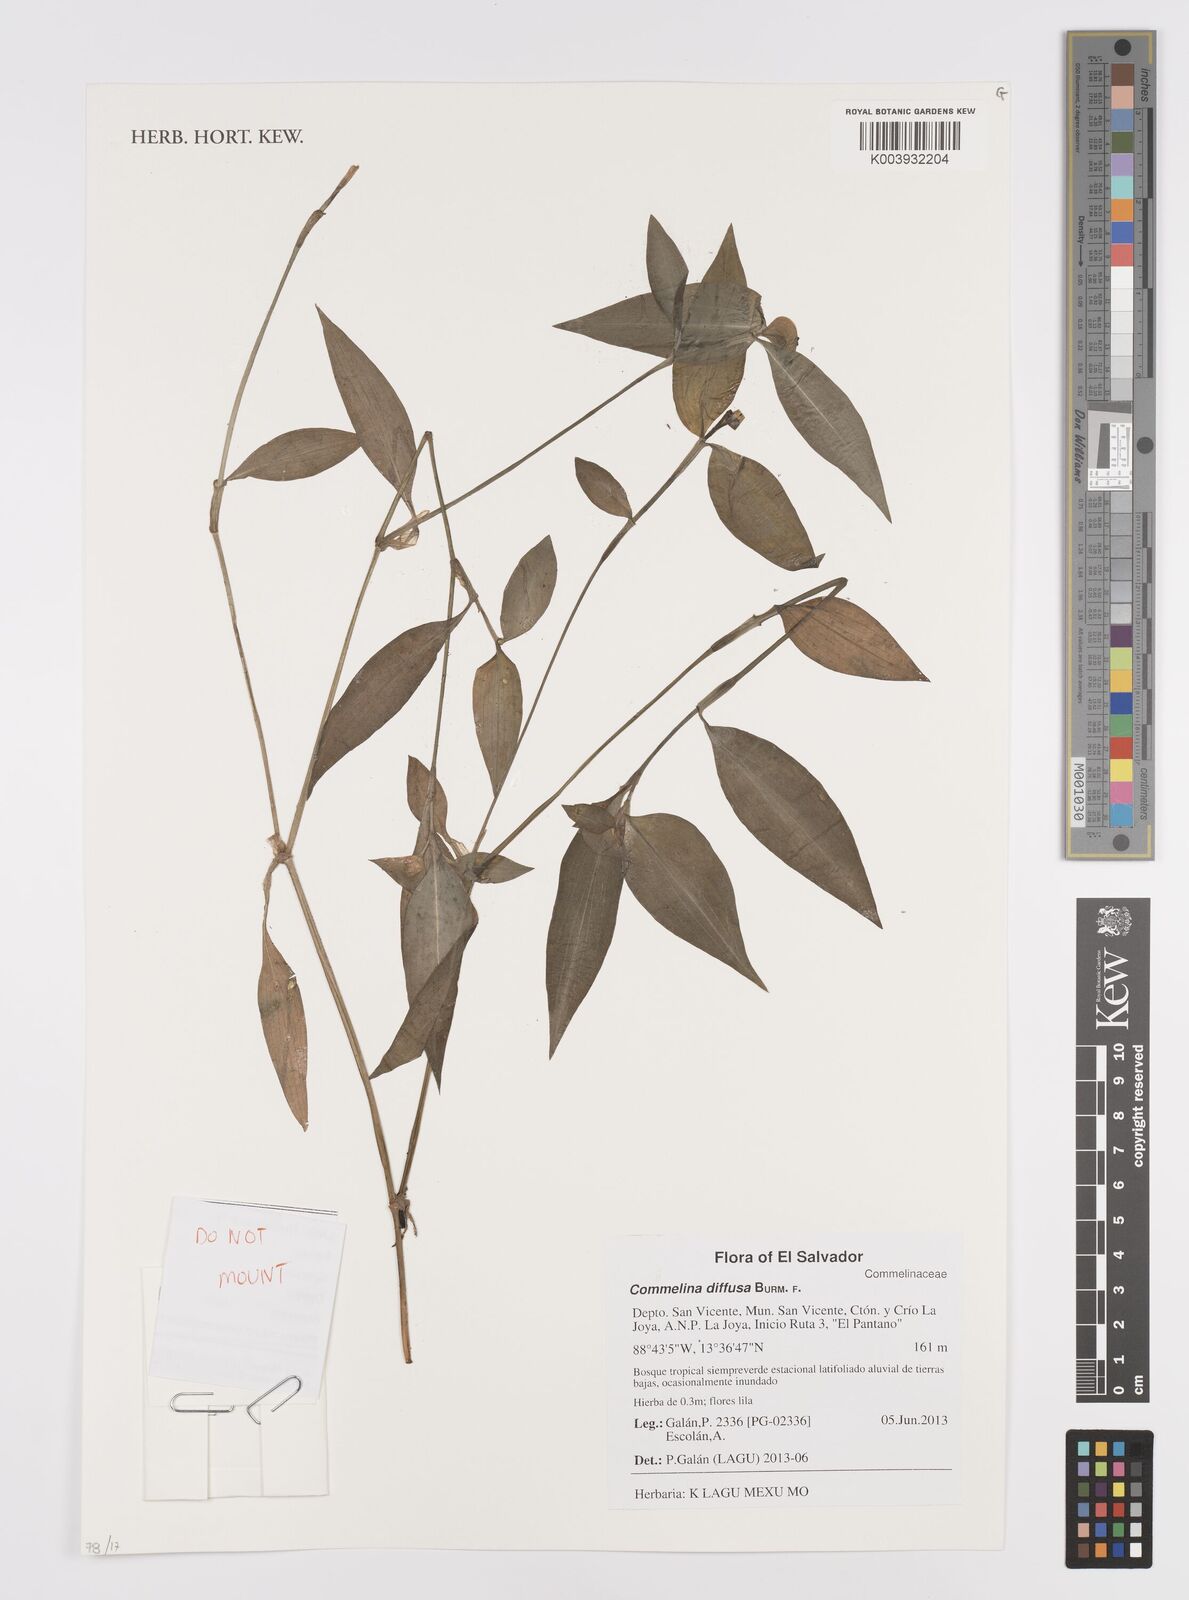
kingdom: Plantae
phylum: Tracheophyta
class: Liliopsida
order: Commelinales
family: Commelinaceae
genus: Commelina
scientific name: Commelina diffusa
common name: Climbing dayflower
